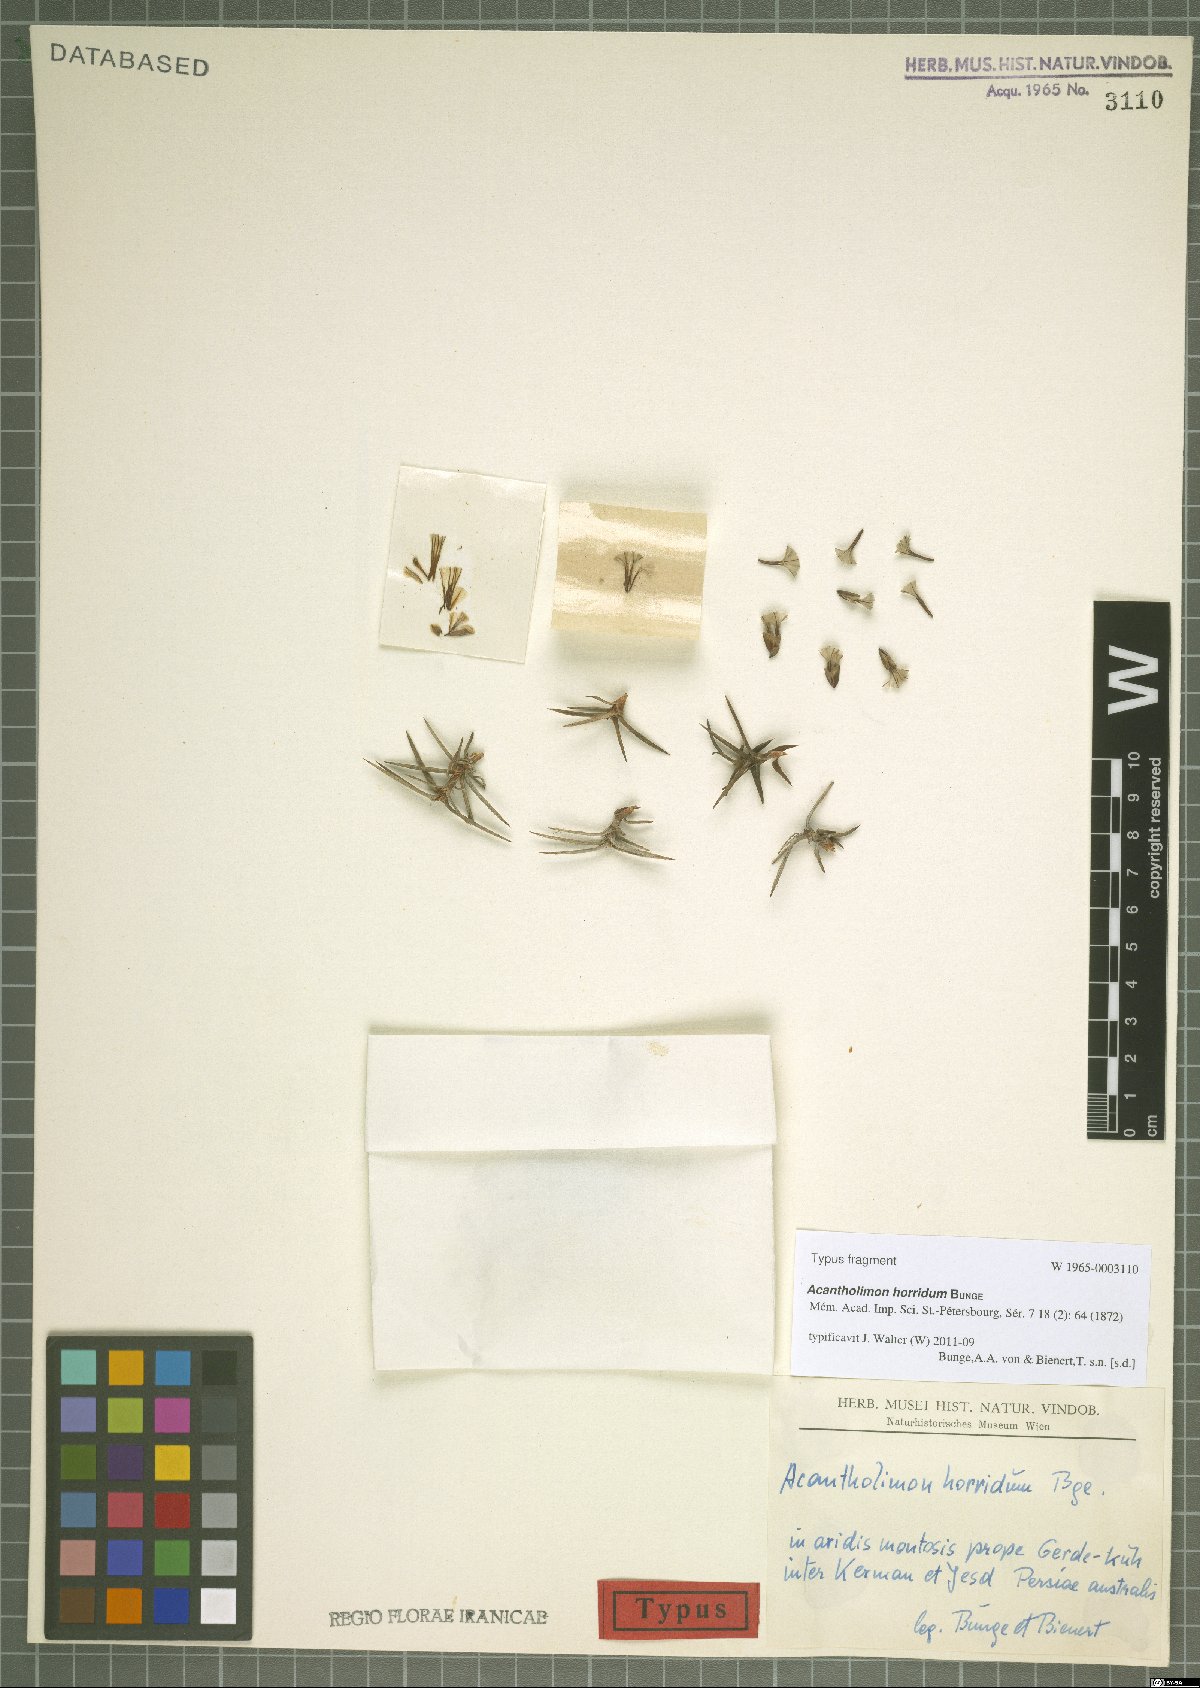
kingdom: Plantae
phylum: Tracheophyta
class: Magnoliopsida
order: Caryophyllales
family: Plumbaginaceae
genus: Acantholimon
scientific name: Acantholimon horridum
